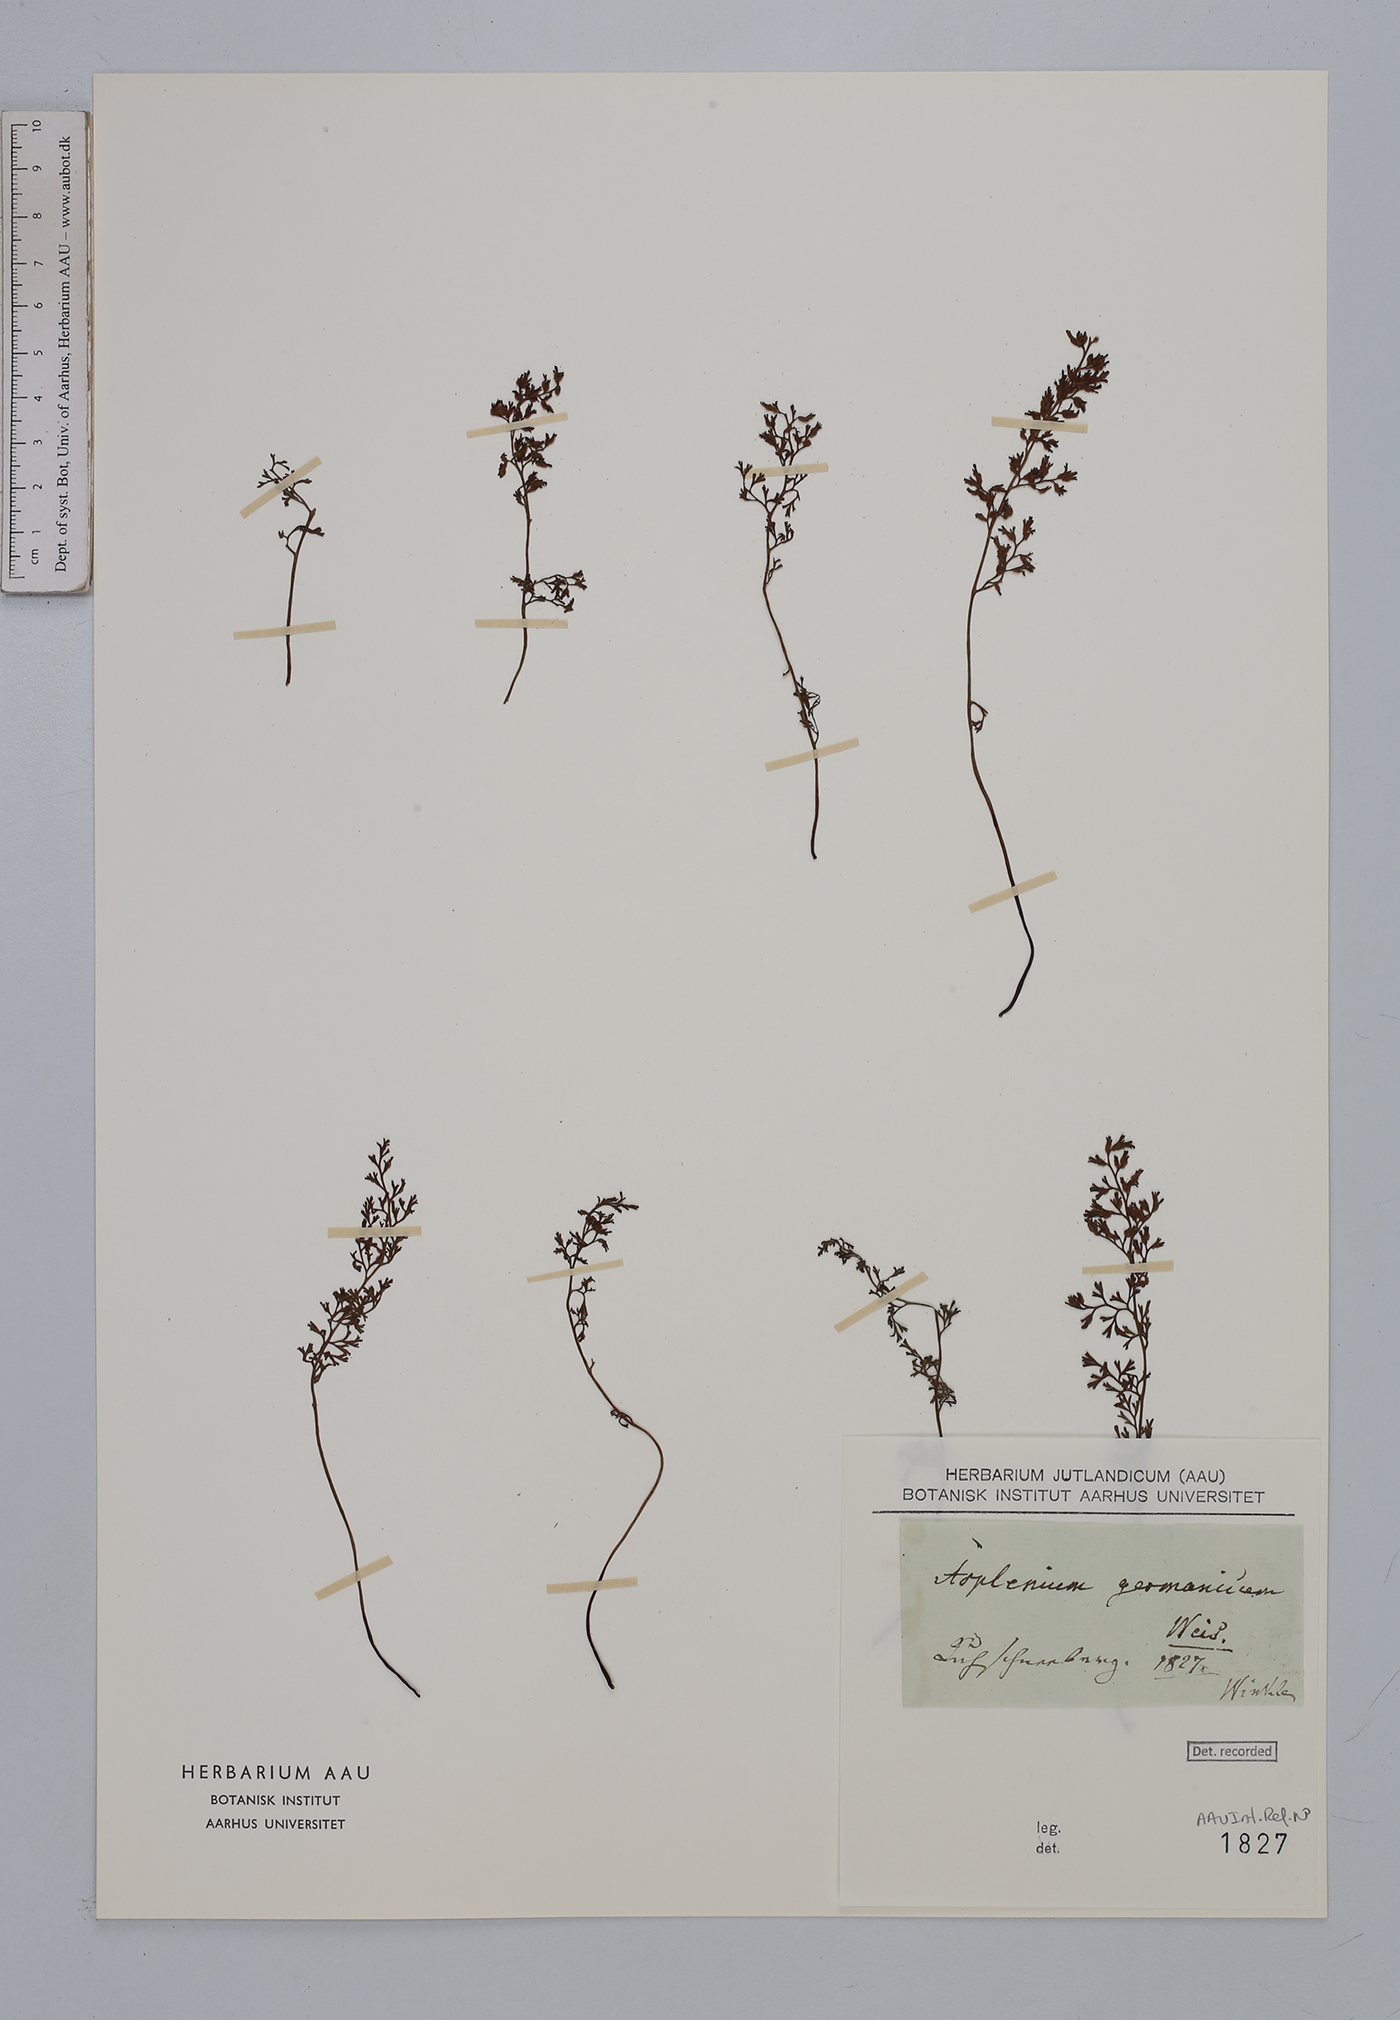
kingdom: Plantae
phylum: Tracheophyta
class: Polypodiopsida
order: Polypodiales
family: Aspleniaceae
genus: Asplenium
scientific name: Asplenium fissum
